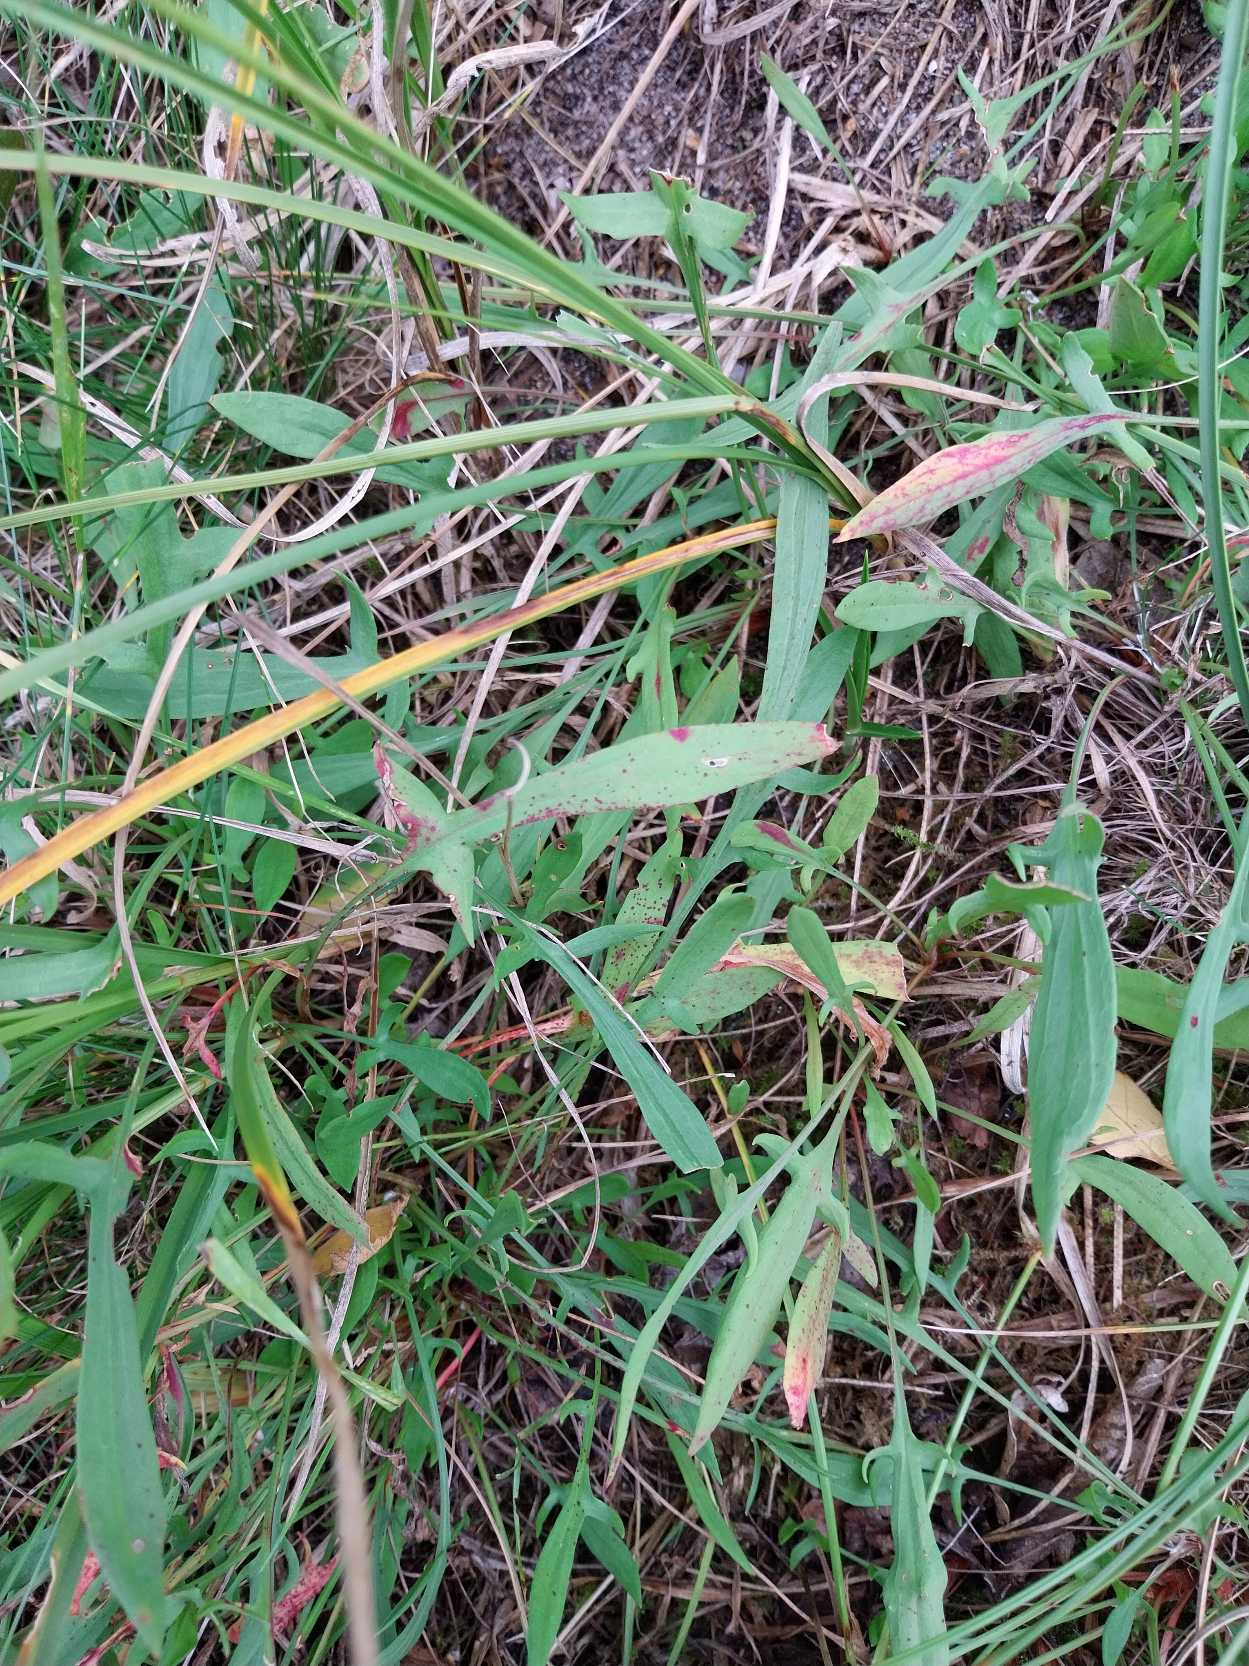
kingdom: Plantae
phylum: Tracheophyta
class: Magnoliopsida
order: Caryophyllales
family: Polygonaceae
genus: Rumex
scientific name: Rumex acetosella
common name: Rødknæ
